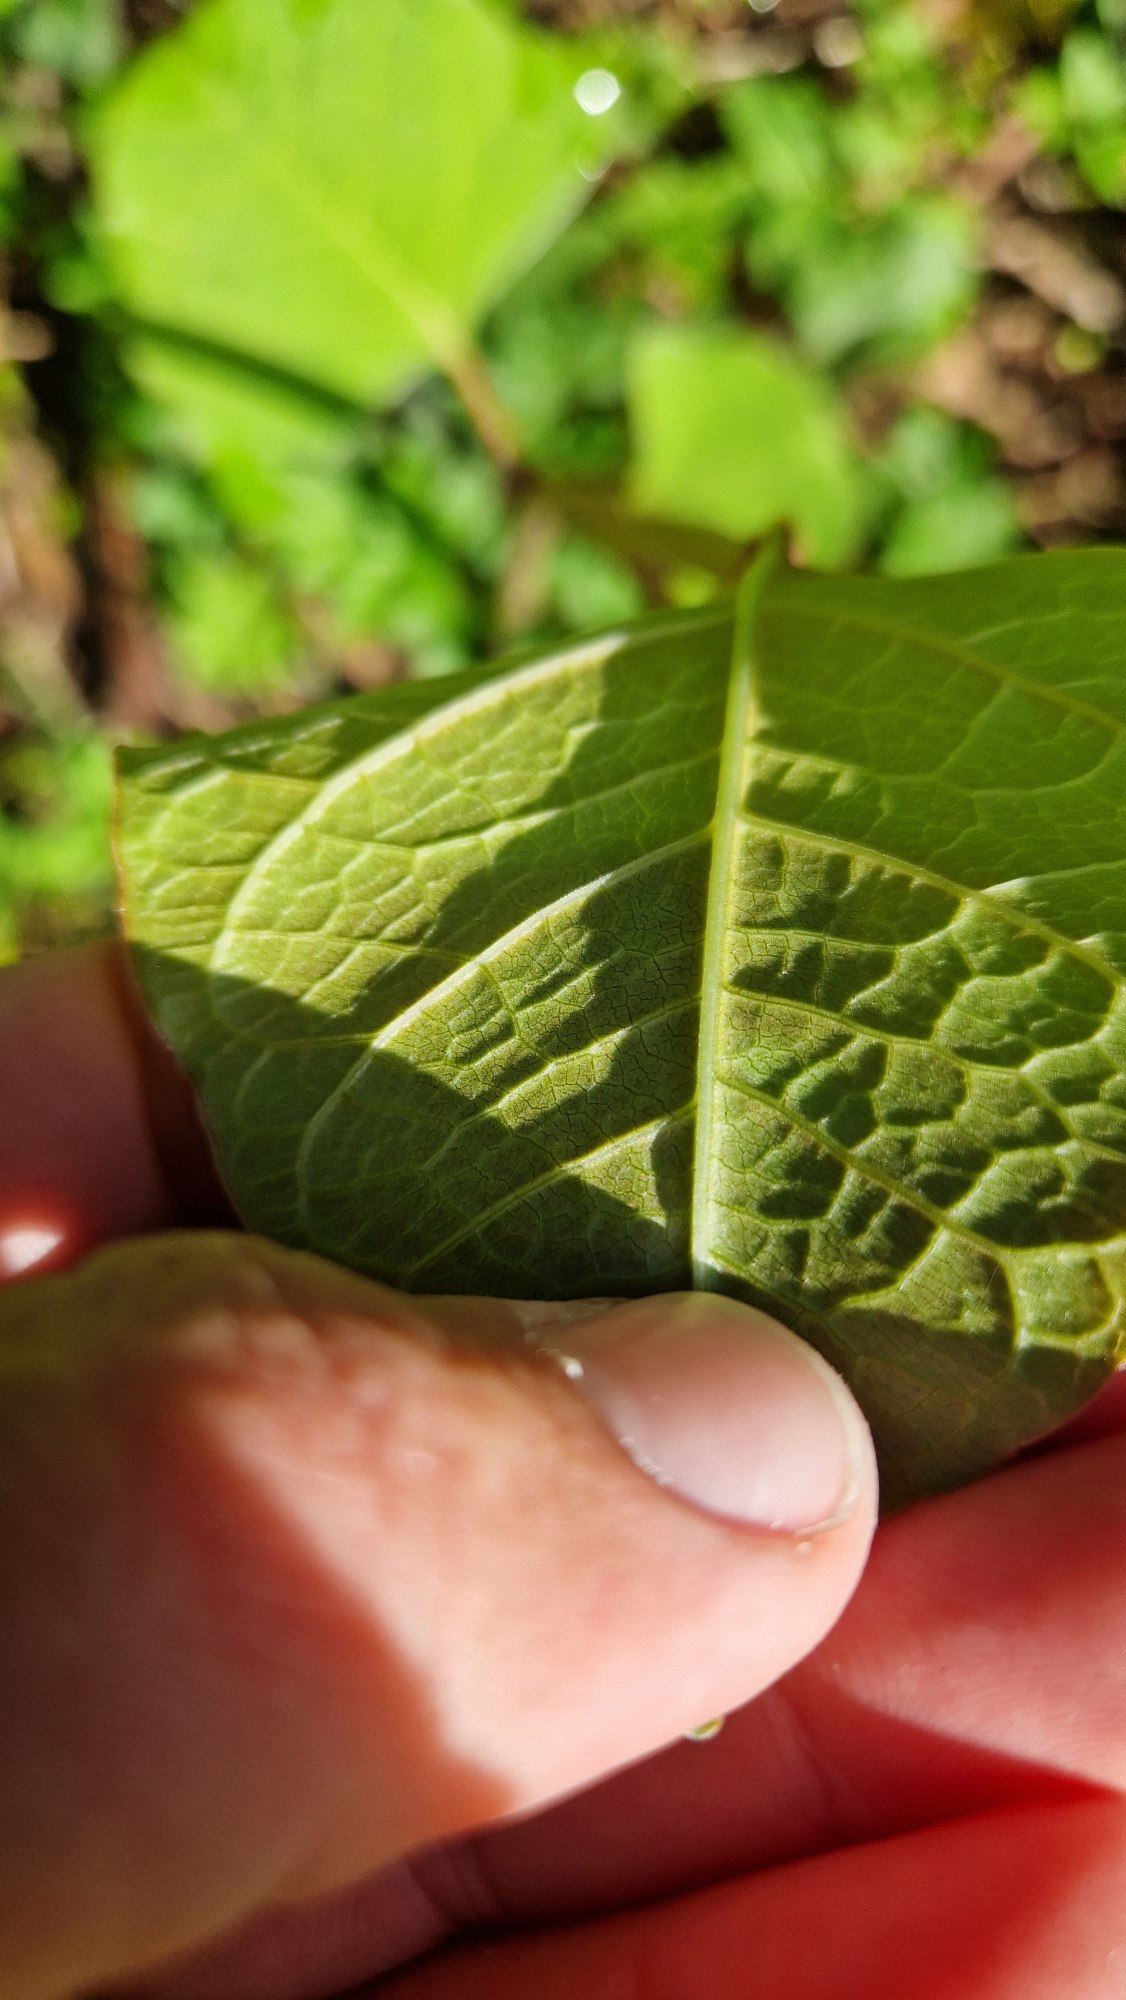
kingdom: Plantae
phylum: Tracheophyta
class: Magnoliopsida
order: Caryophyllales
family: Polygonaceae
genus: Reynoutria
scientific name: Reynoutria japonica
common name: Japan-pileurt
